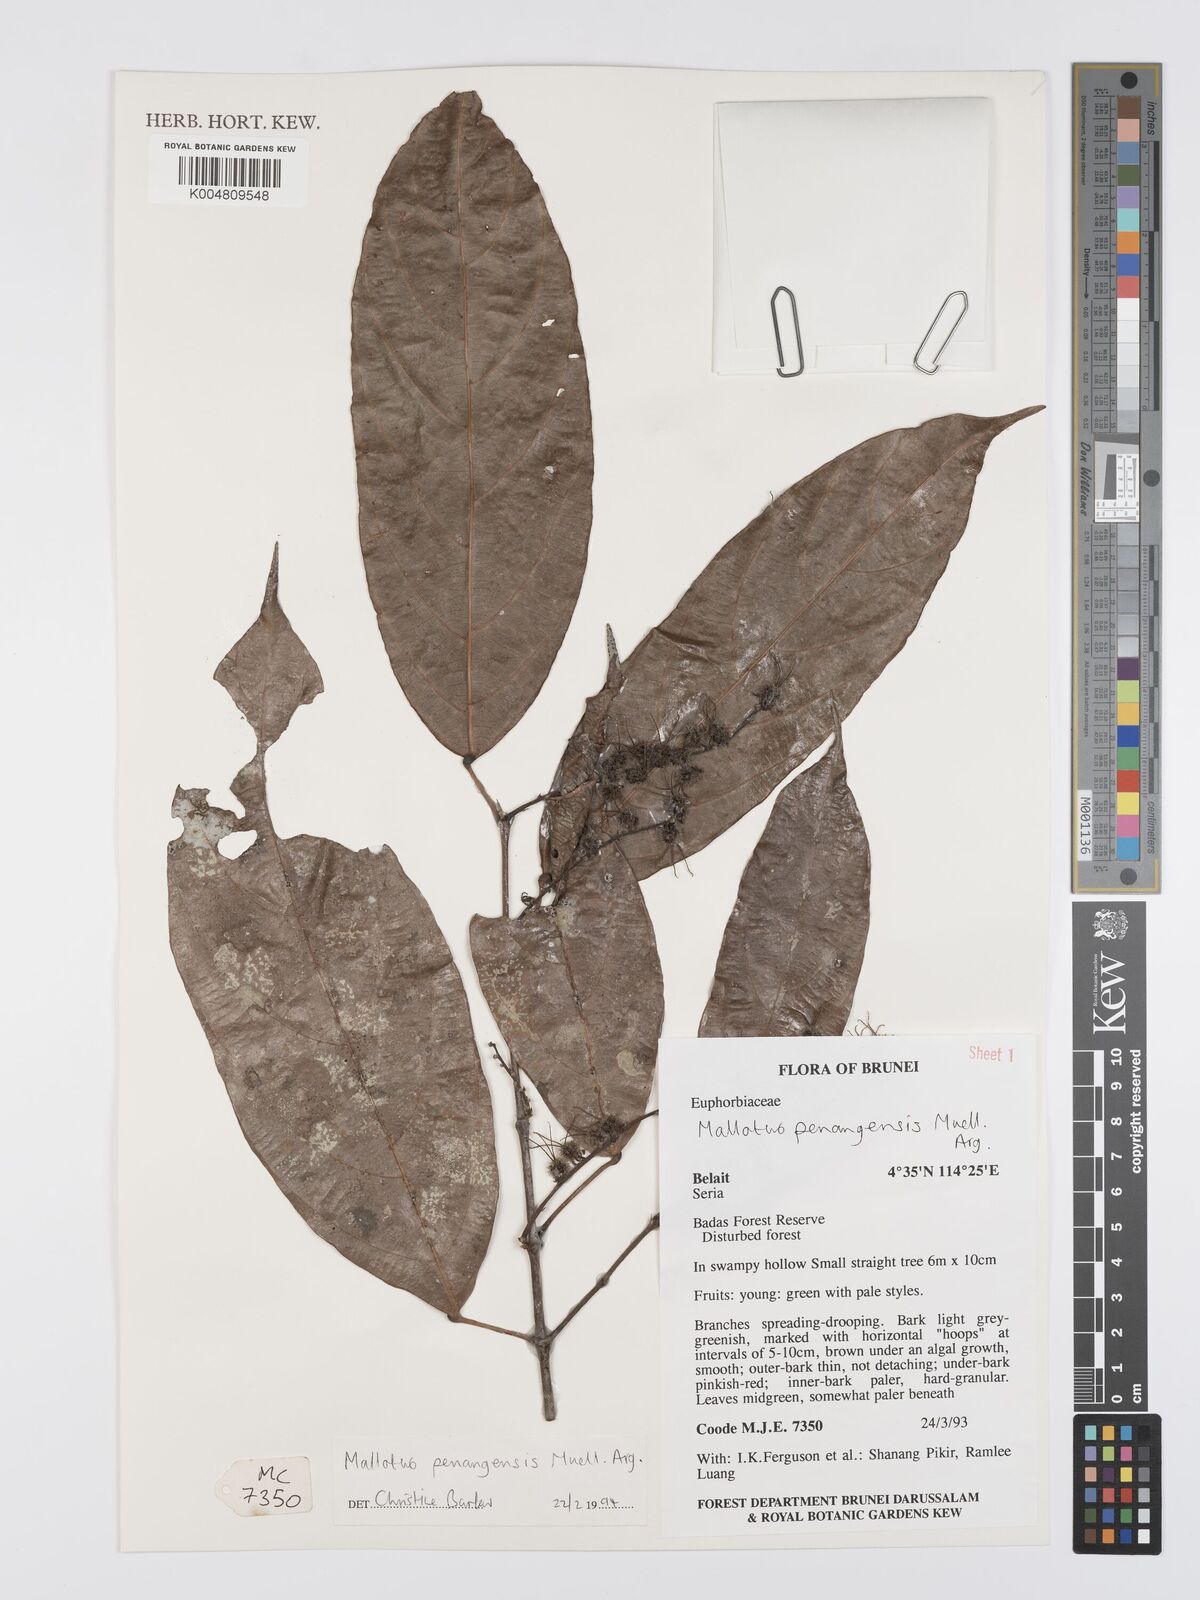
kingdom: Plantae
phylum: Tracheophyta
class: Magnoliopsida
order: Malpighiales
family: Euphorbiaceae
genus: Hancea
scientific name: Hancea penangensis
